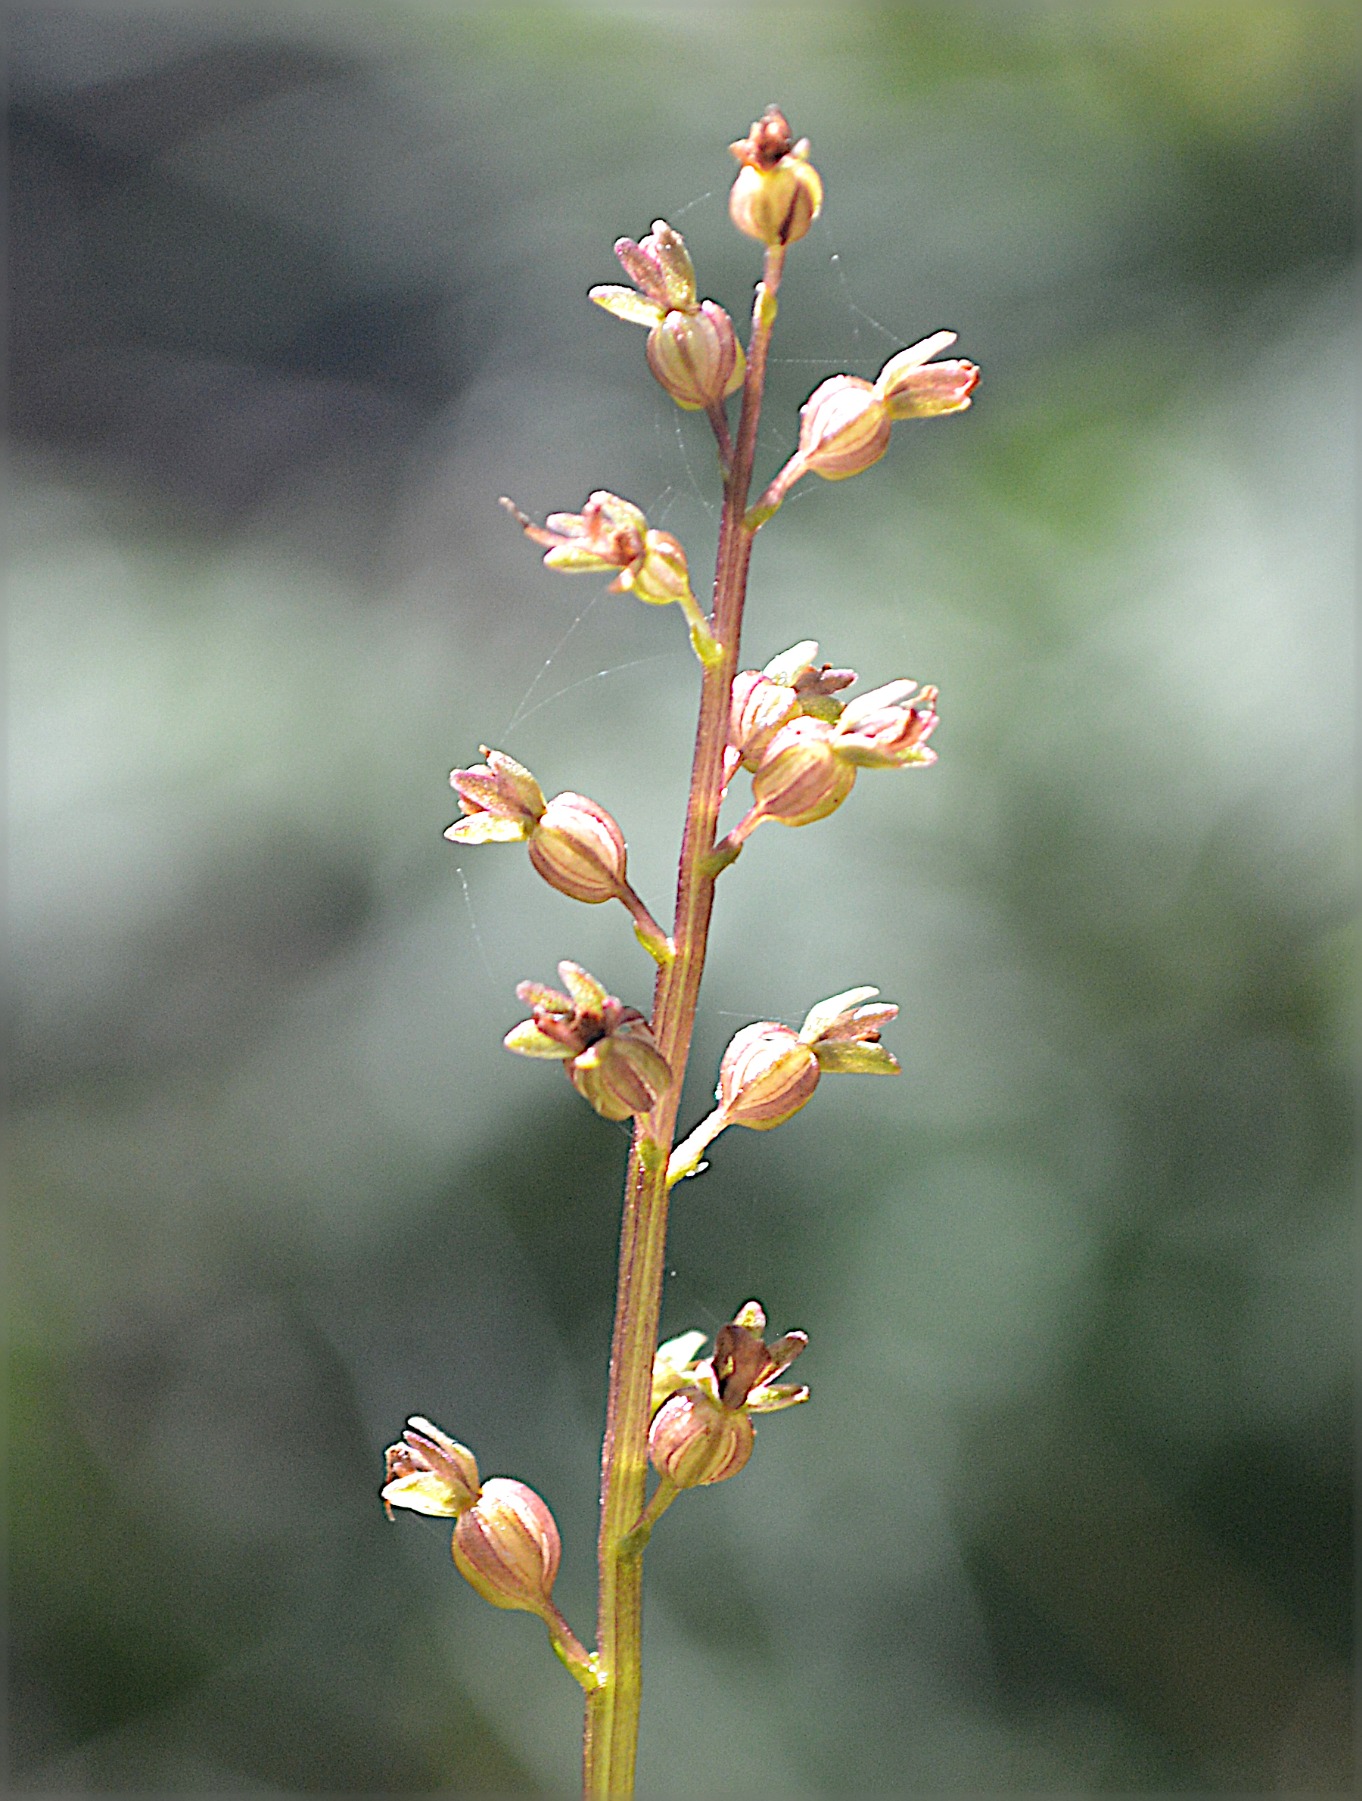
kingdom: Plantae
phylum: Tracheophyta
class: Liliopsida
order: Asparagales
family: Orchidaceae
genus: Neottia
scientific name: Neottia cordata
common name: Hjertebladet fliglæbe
